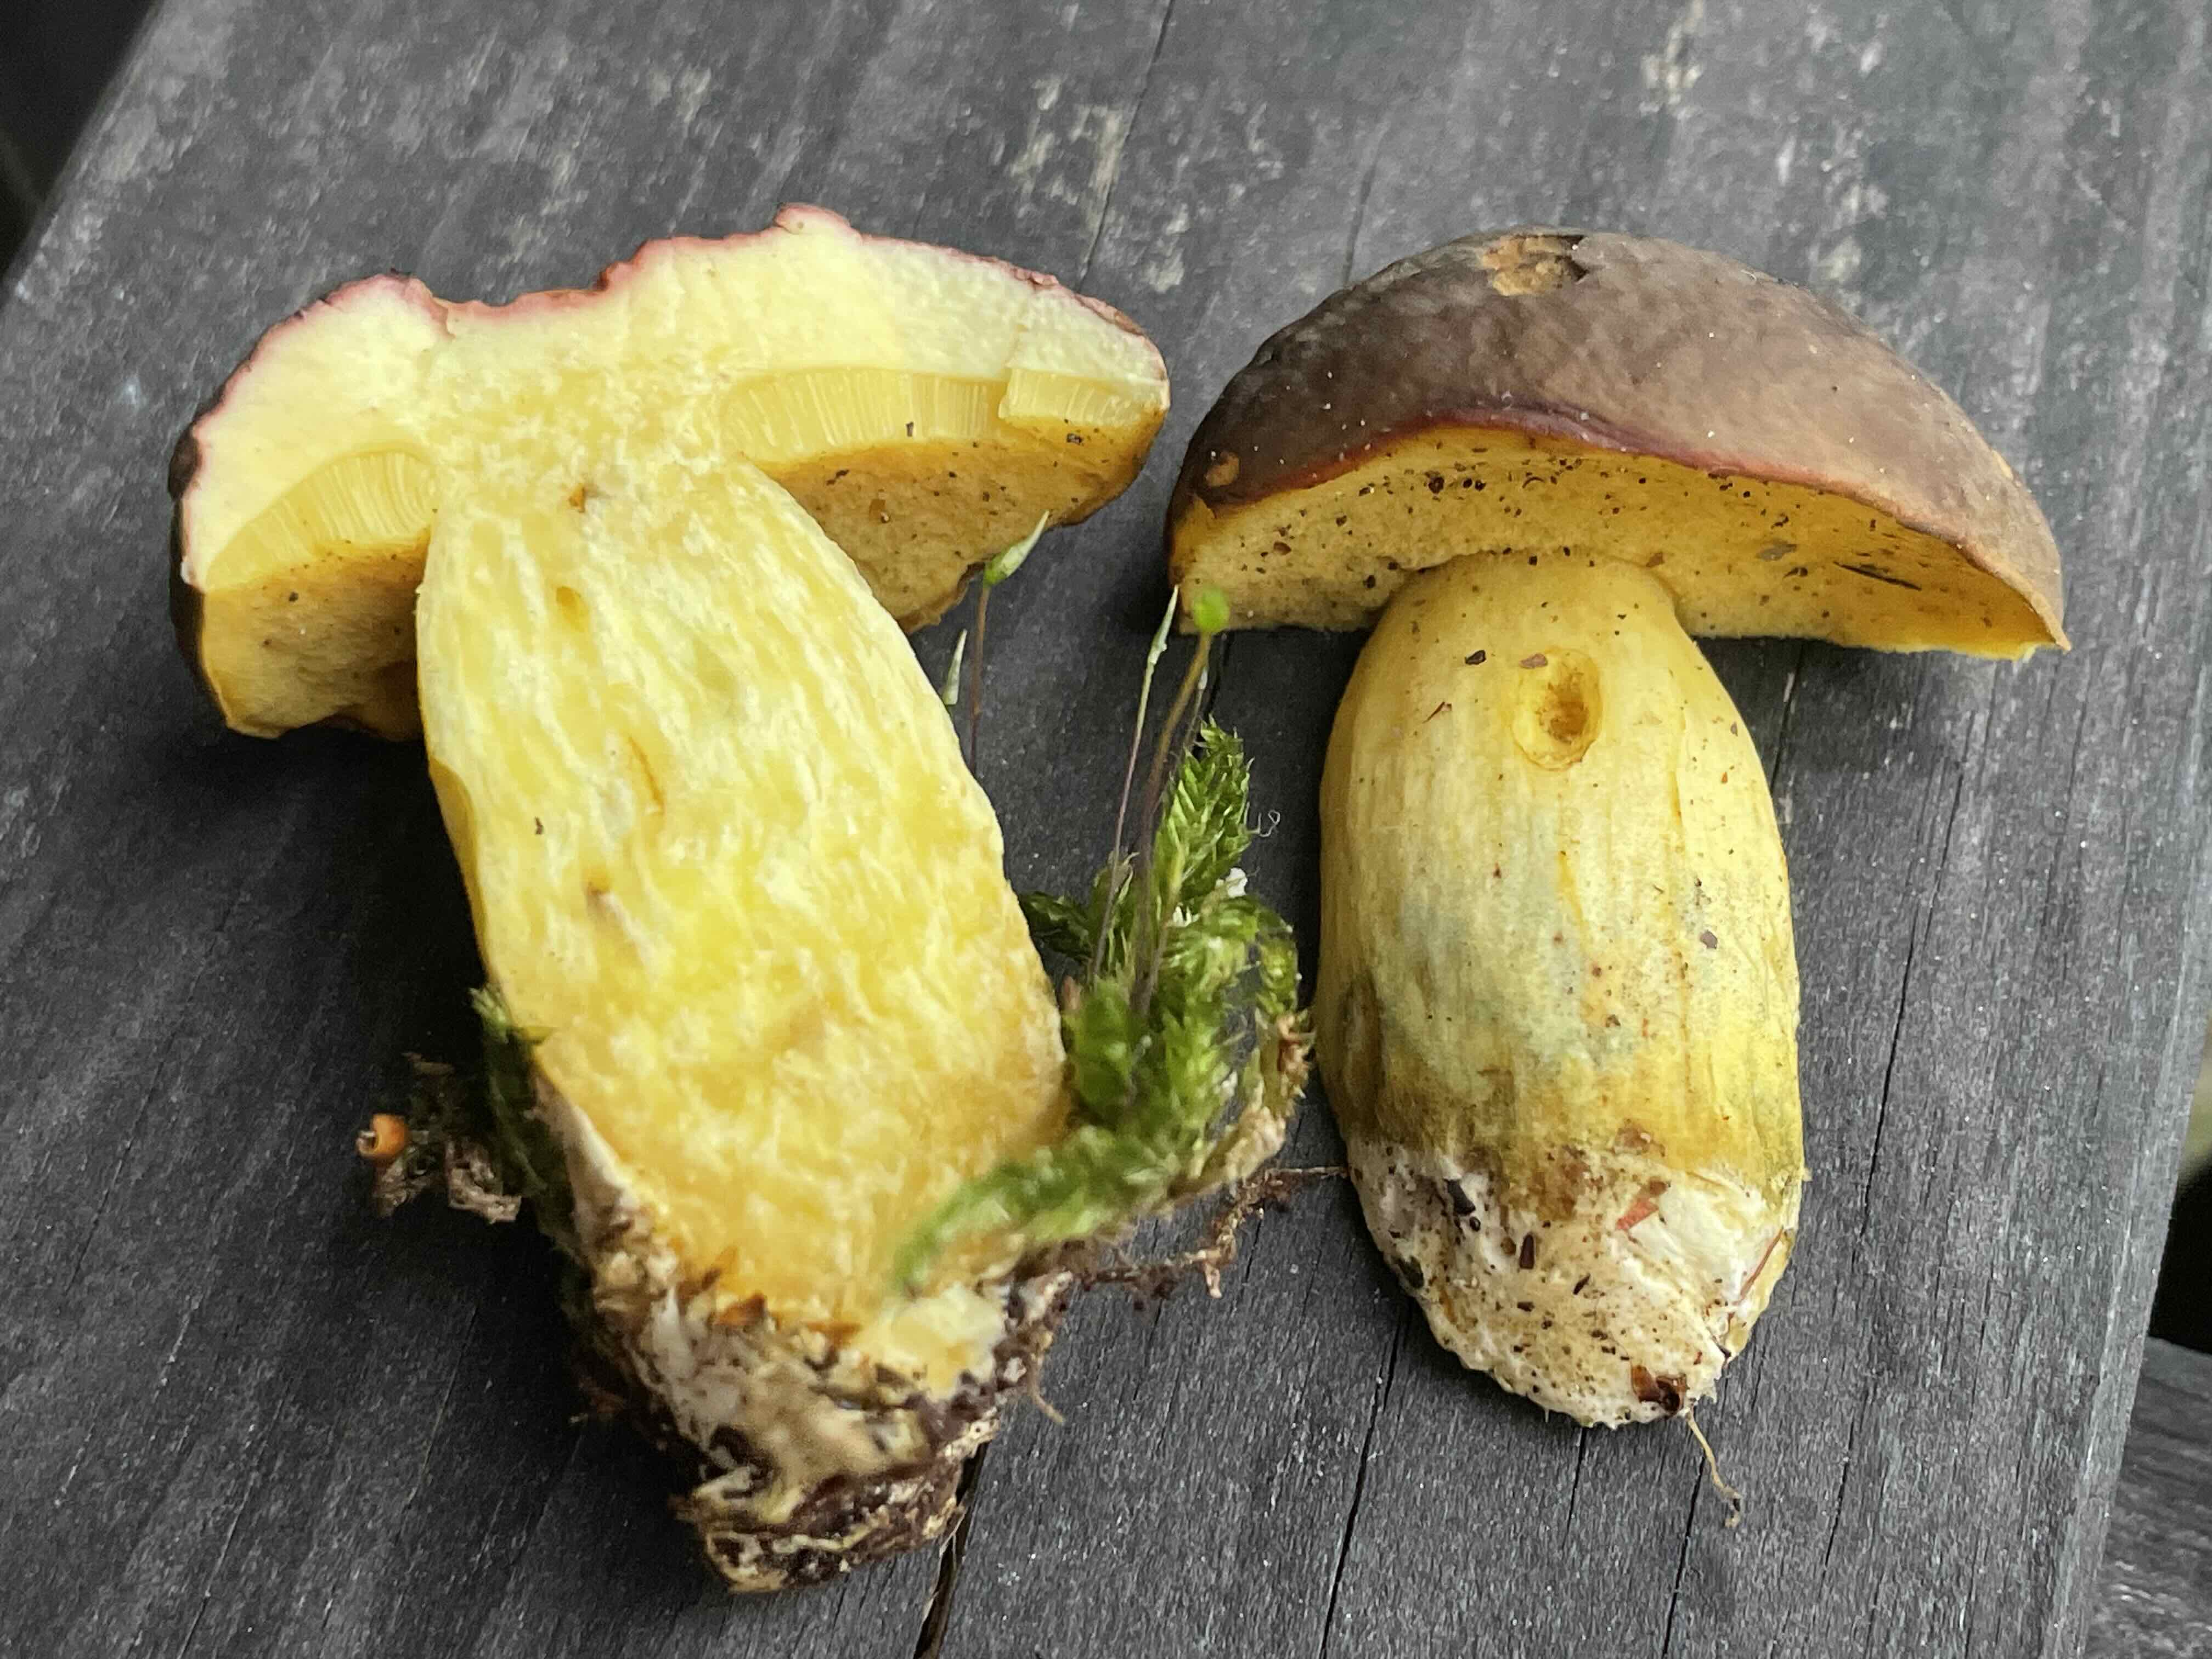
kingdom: Fungi
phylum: Basidiomycota
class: Agaricomycetes
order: Boletales
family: Boletaceae
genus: Xerocomellus
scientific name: Xerocomellus pruinatus
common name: dugget rørhat
